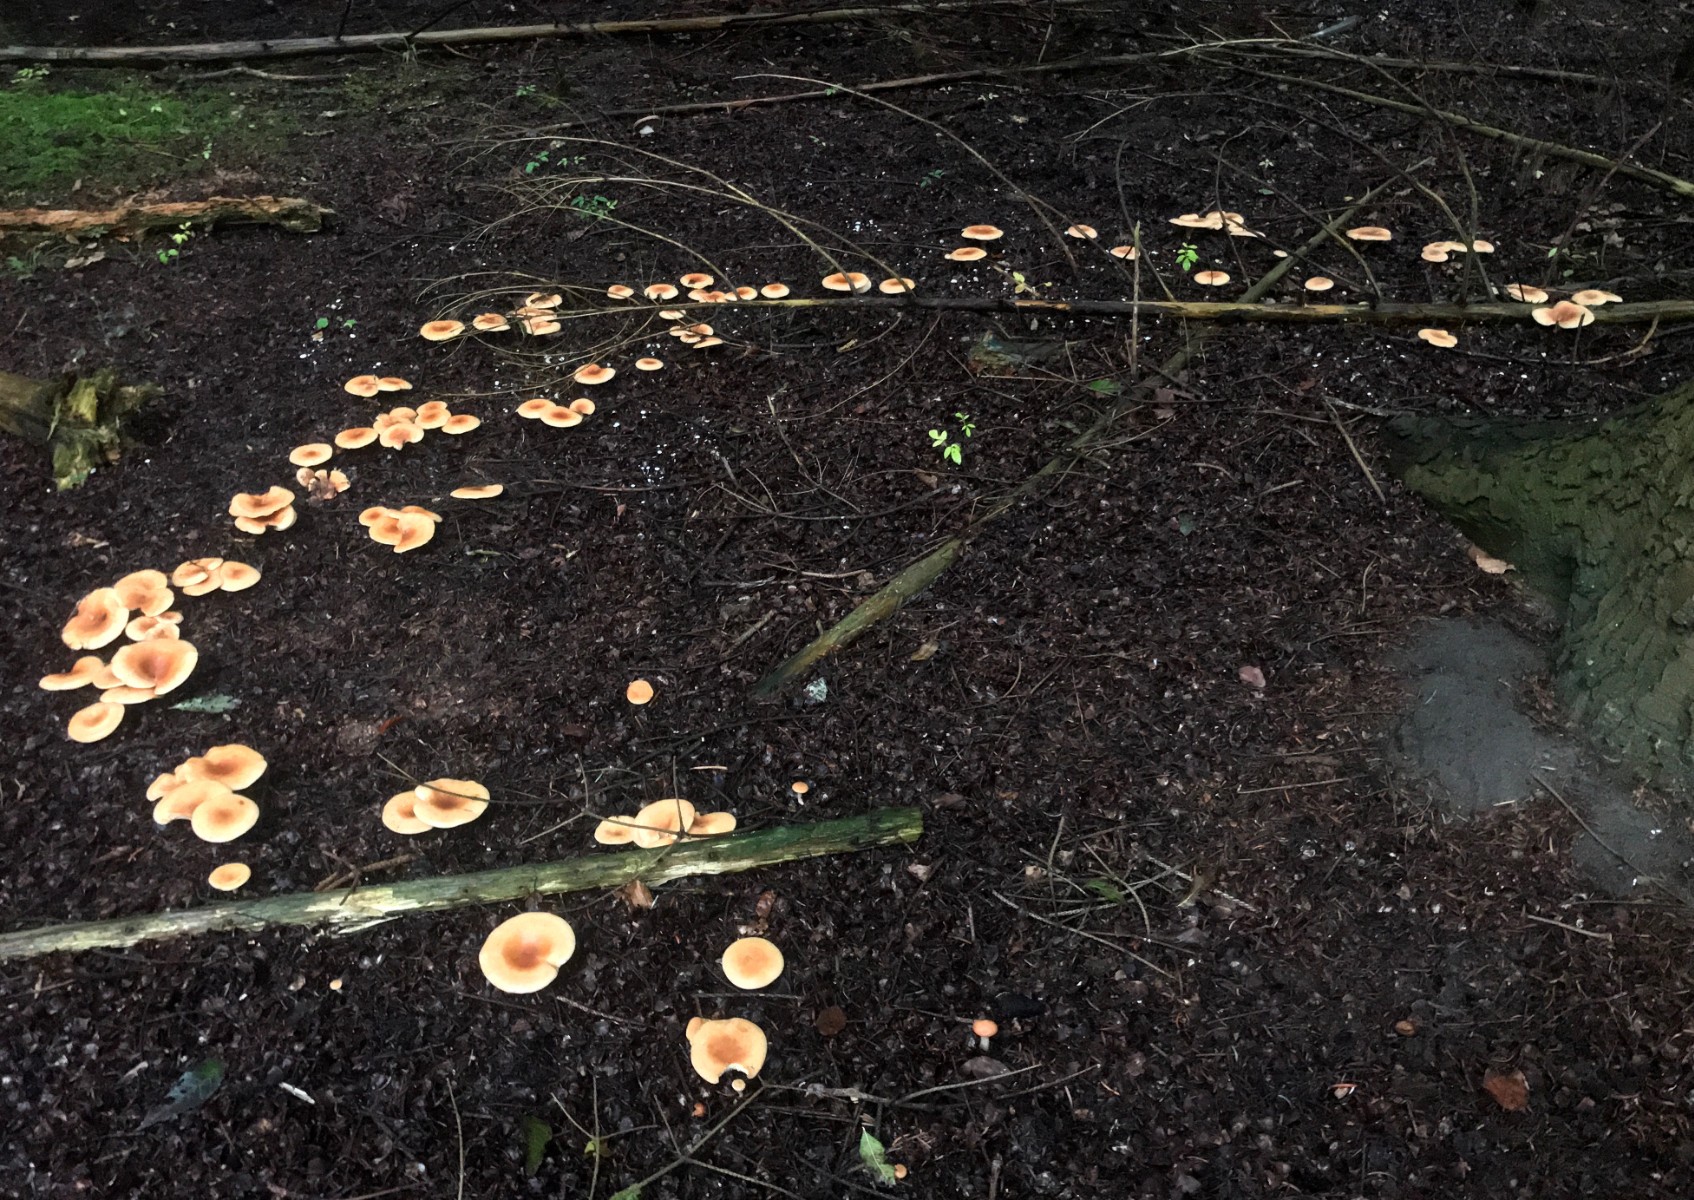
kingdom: Fungi
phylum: Basidiomycota
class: Agaricomycetes
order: Agaricales
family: Tricholomataceae
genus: Paralepista
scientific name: Paralepista flaccida
